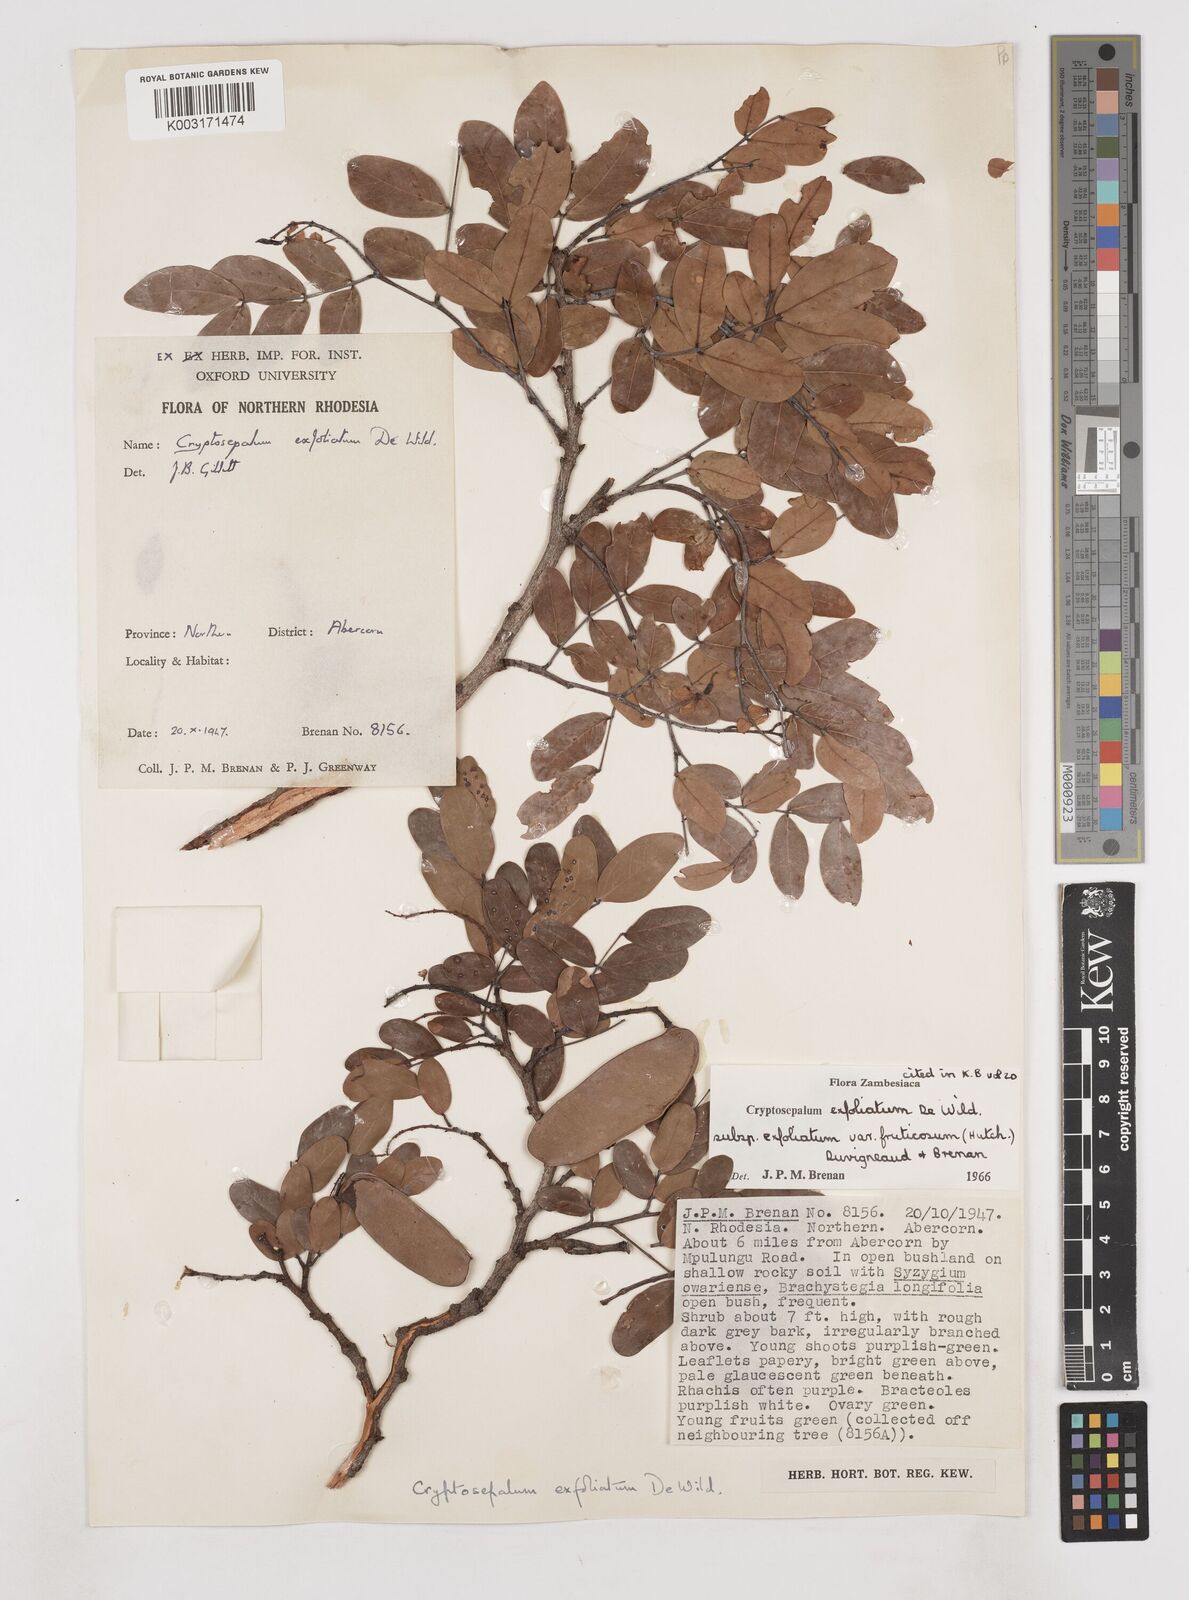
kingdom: Plantae
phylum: Tracheophyta
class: Magnoliopsida
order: Fabales
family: Fabaceae
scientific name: Fabaceae
